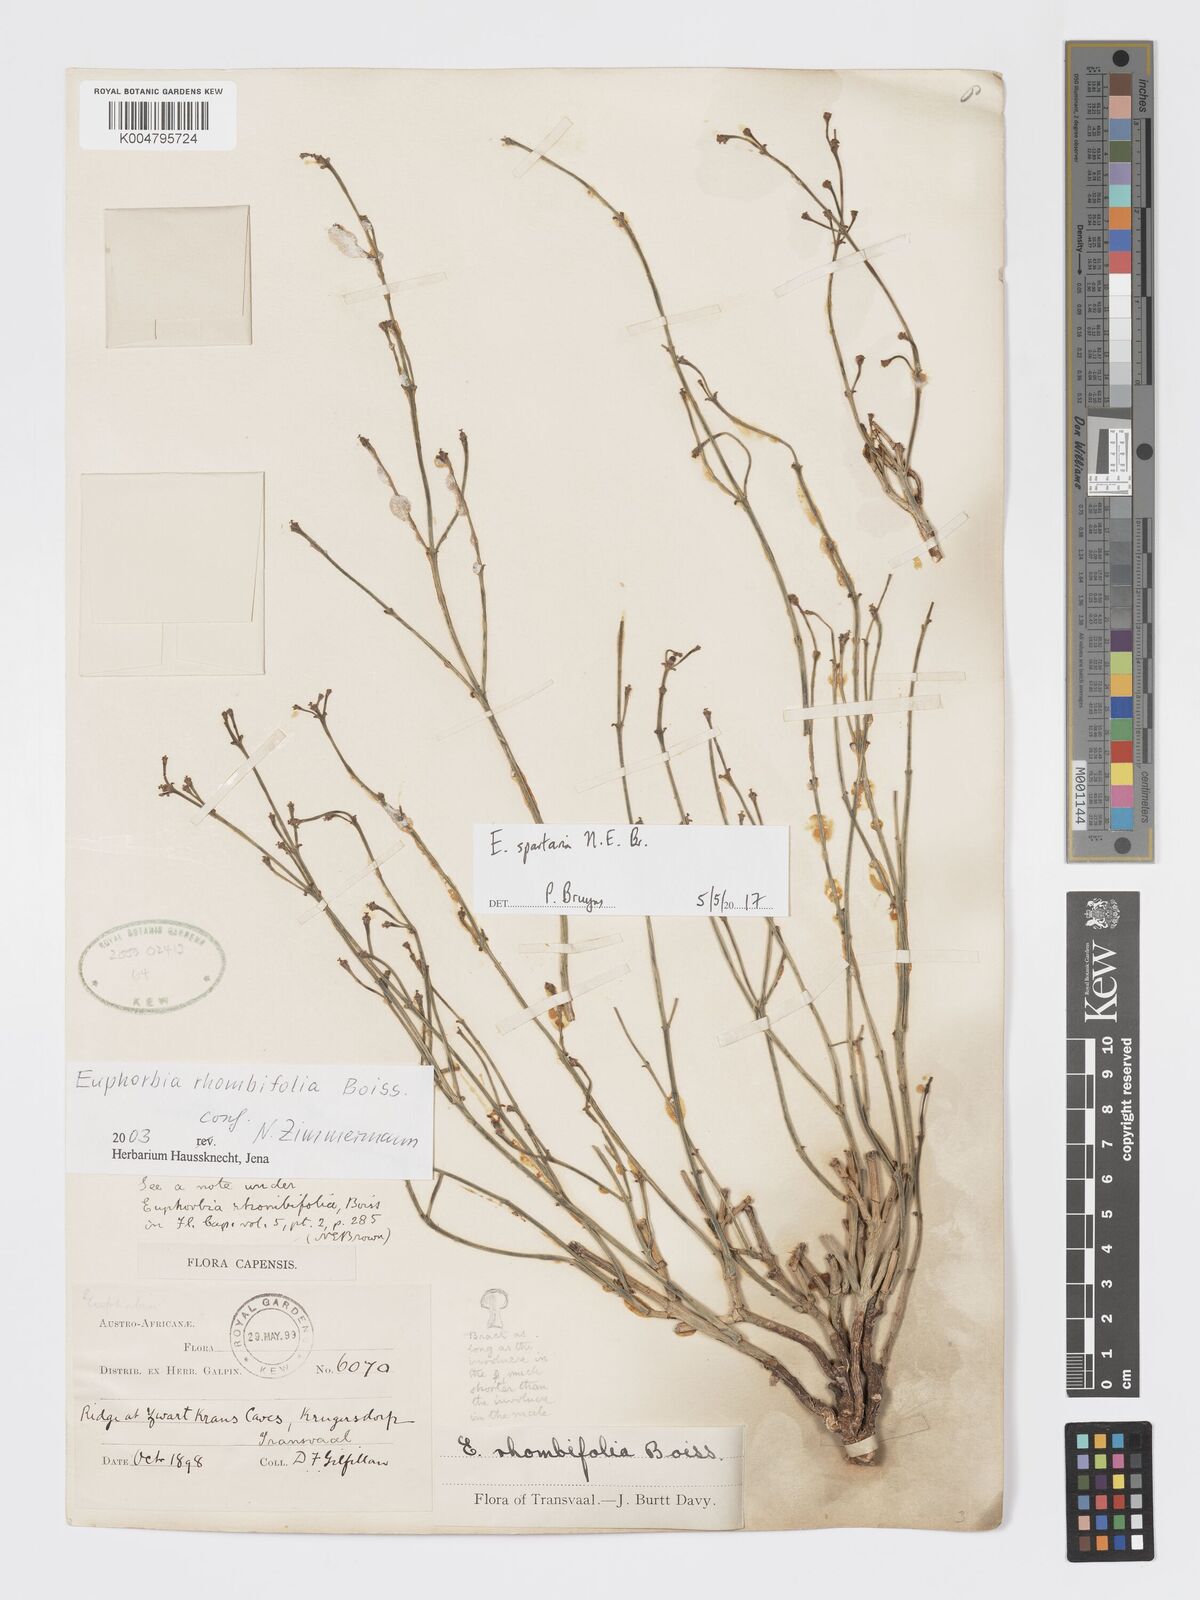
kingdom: Plantae
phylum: Tracheophyta
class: Magnoliopsida
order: Malpighiales
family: Euphorbiaceae
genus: Euphorbia
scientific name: Euphorbia spartaria
